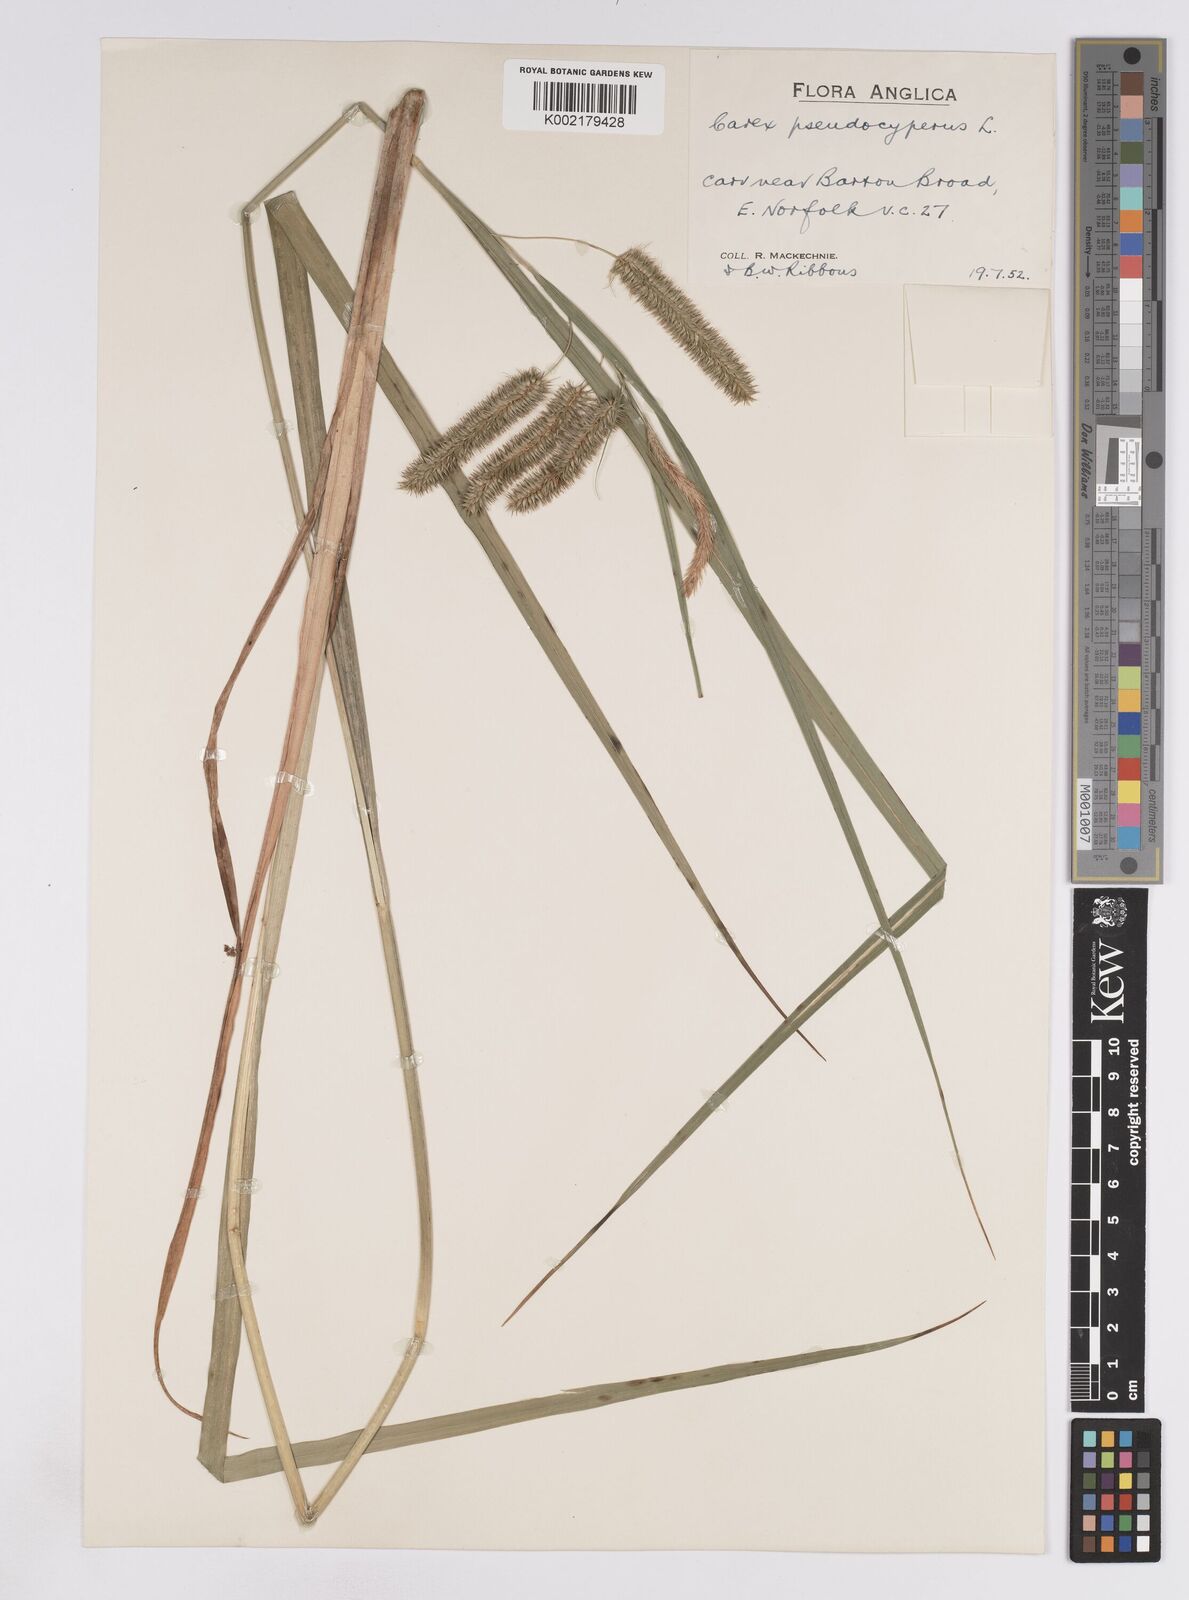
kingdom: Plantae
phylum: Tracheophyta
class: Liliopsida
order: Poales
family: Cyperaceae
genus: Carex
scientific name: Carex pseudocyperus
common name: Cyperus sedge
